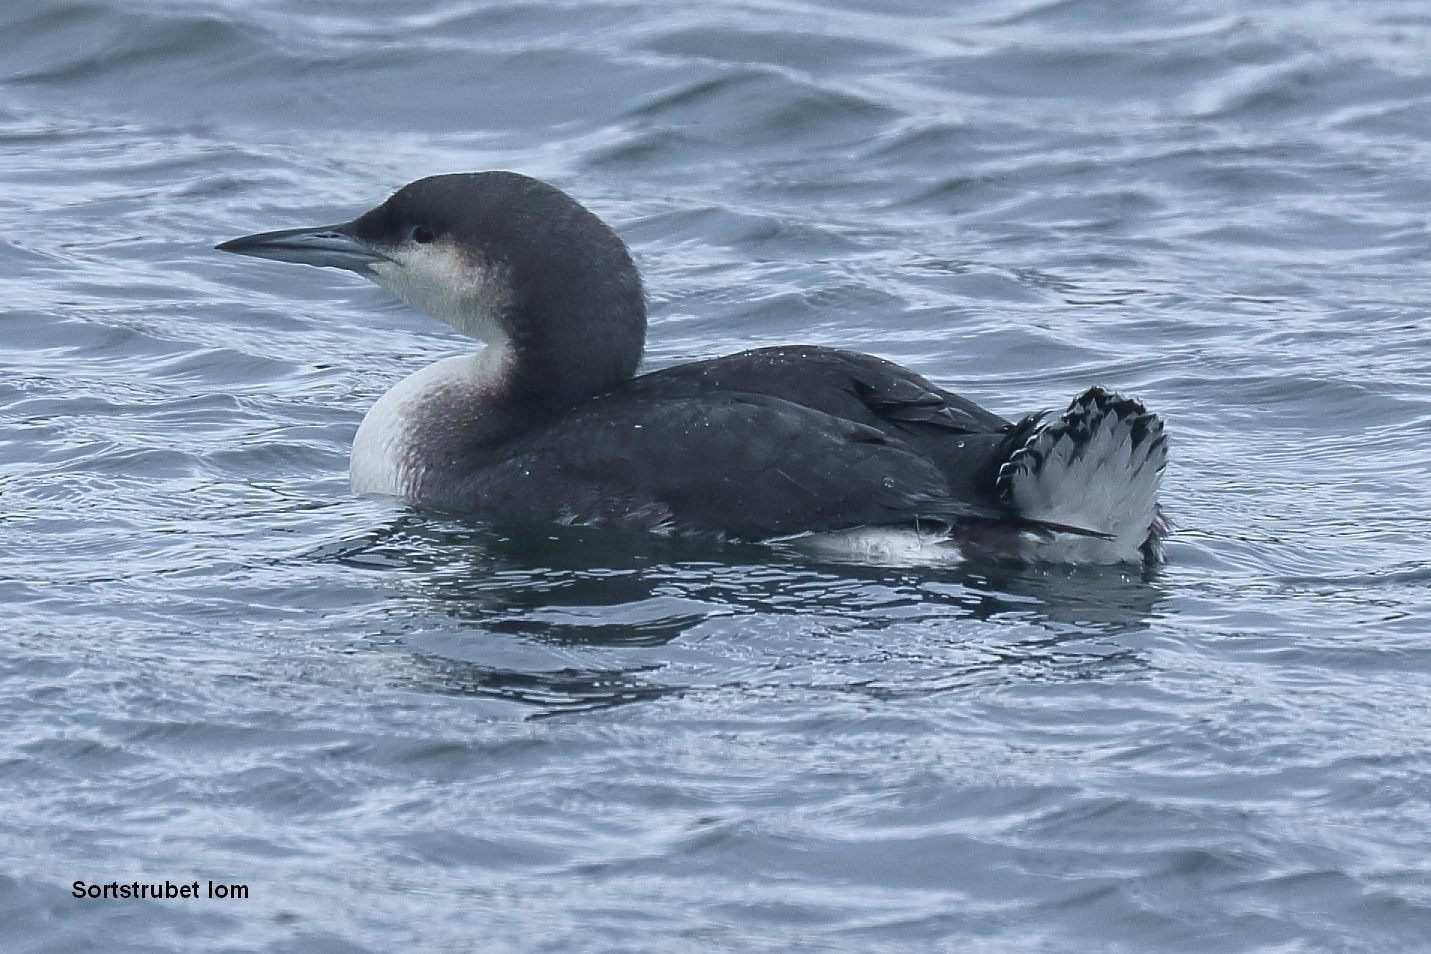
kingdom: Animalia
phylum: Chordata
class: Aves
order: Gaviiformes
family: Gaviidae
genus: Gavia
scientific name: Gavia arctica
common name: Sortstrubet lom
